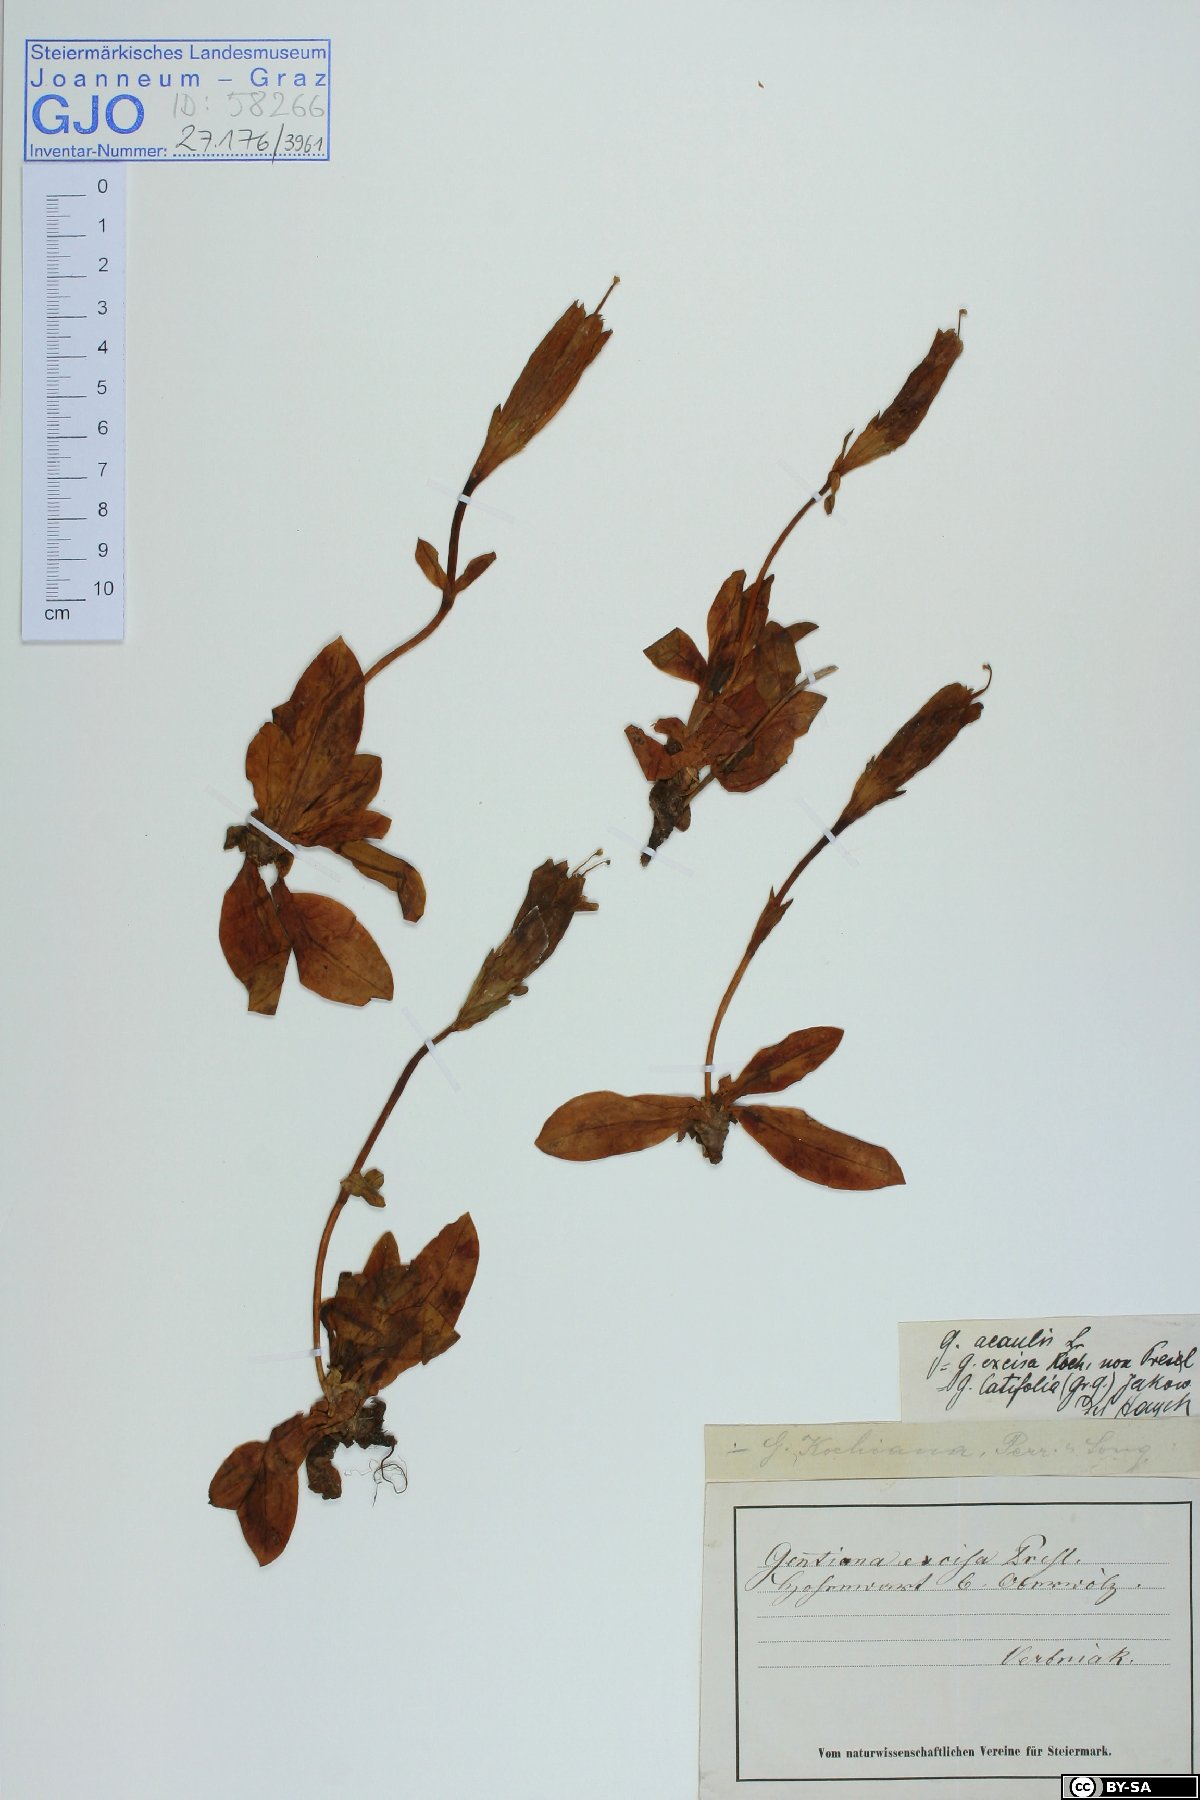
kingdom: Plantae
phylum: Tracheophyta
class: Magnoliopsida
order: Gentianales
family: Gentianaceae
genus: Gentiana
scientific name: Gentiana acaulis
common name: Trumpet gentian
